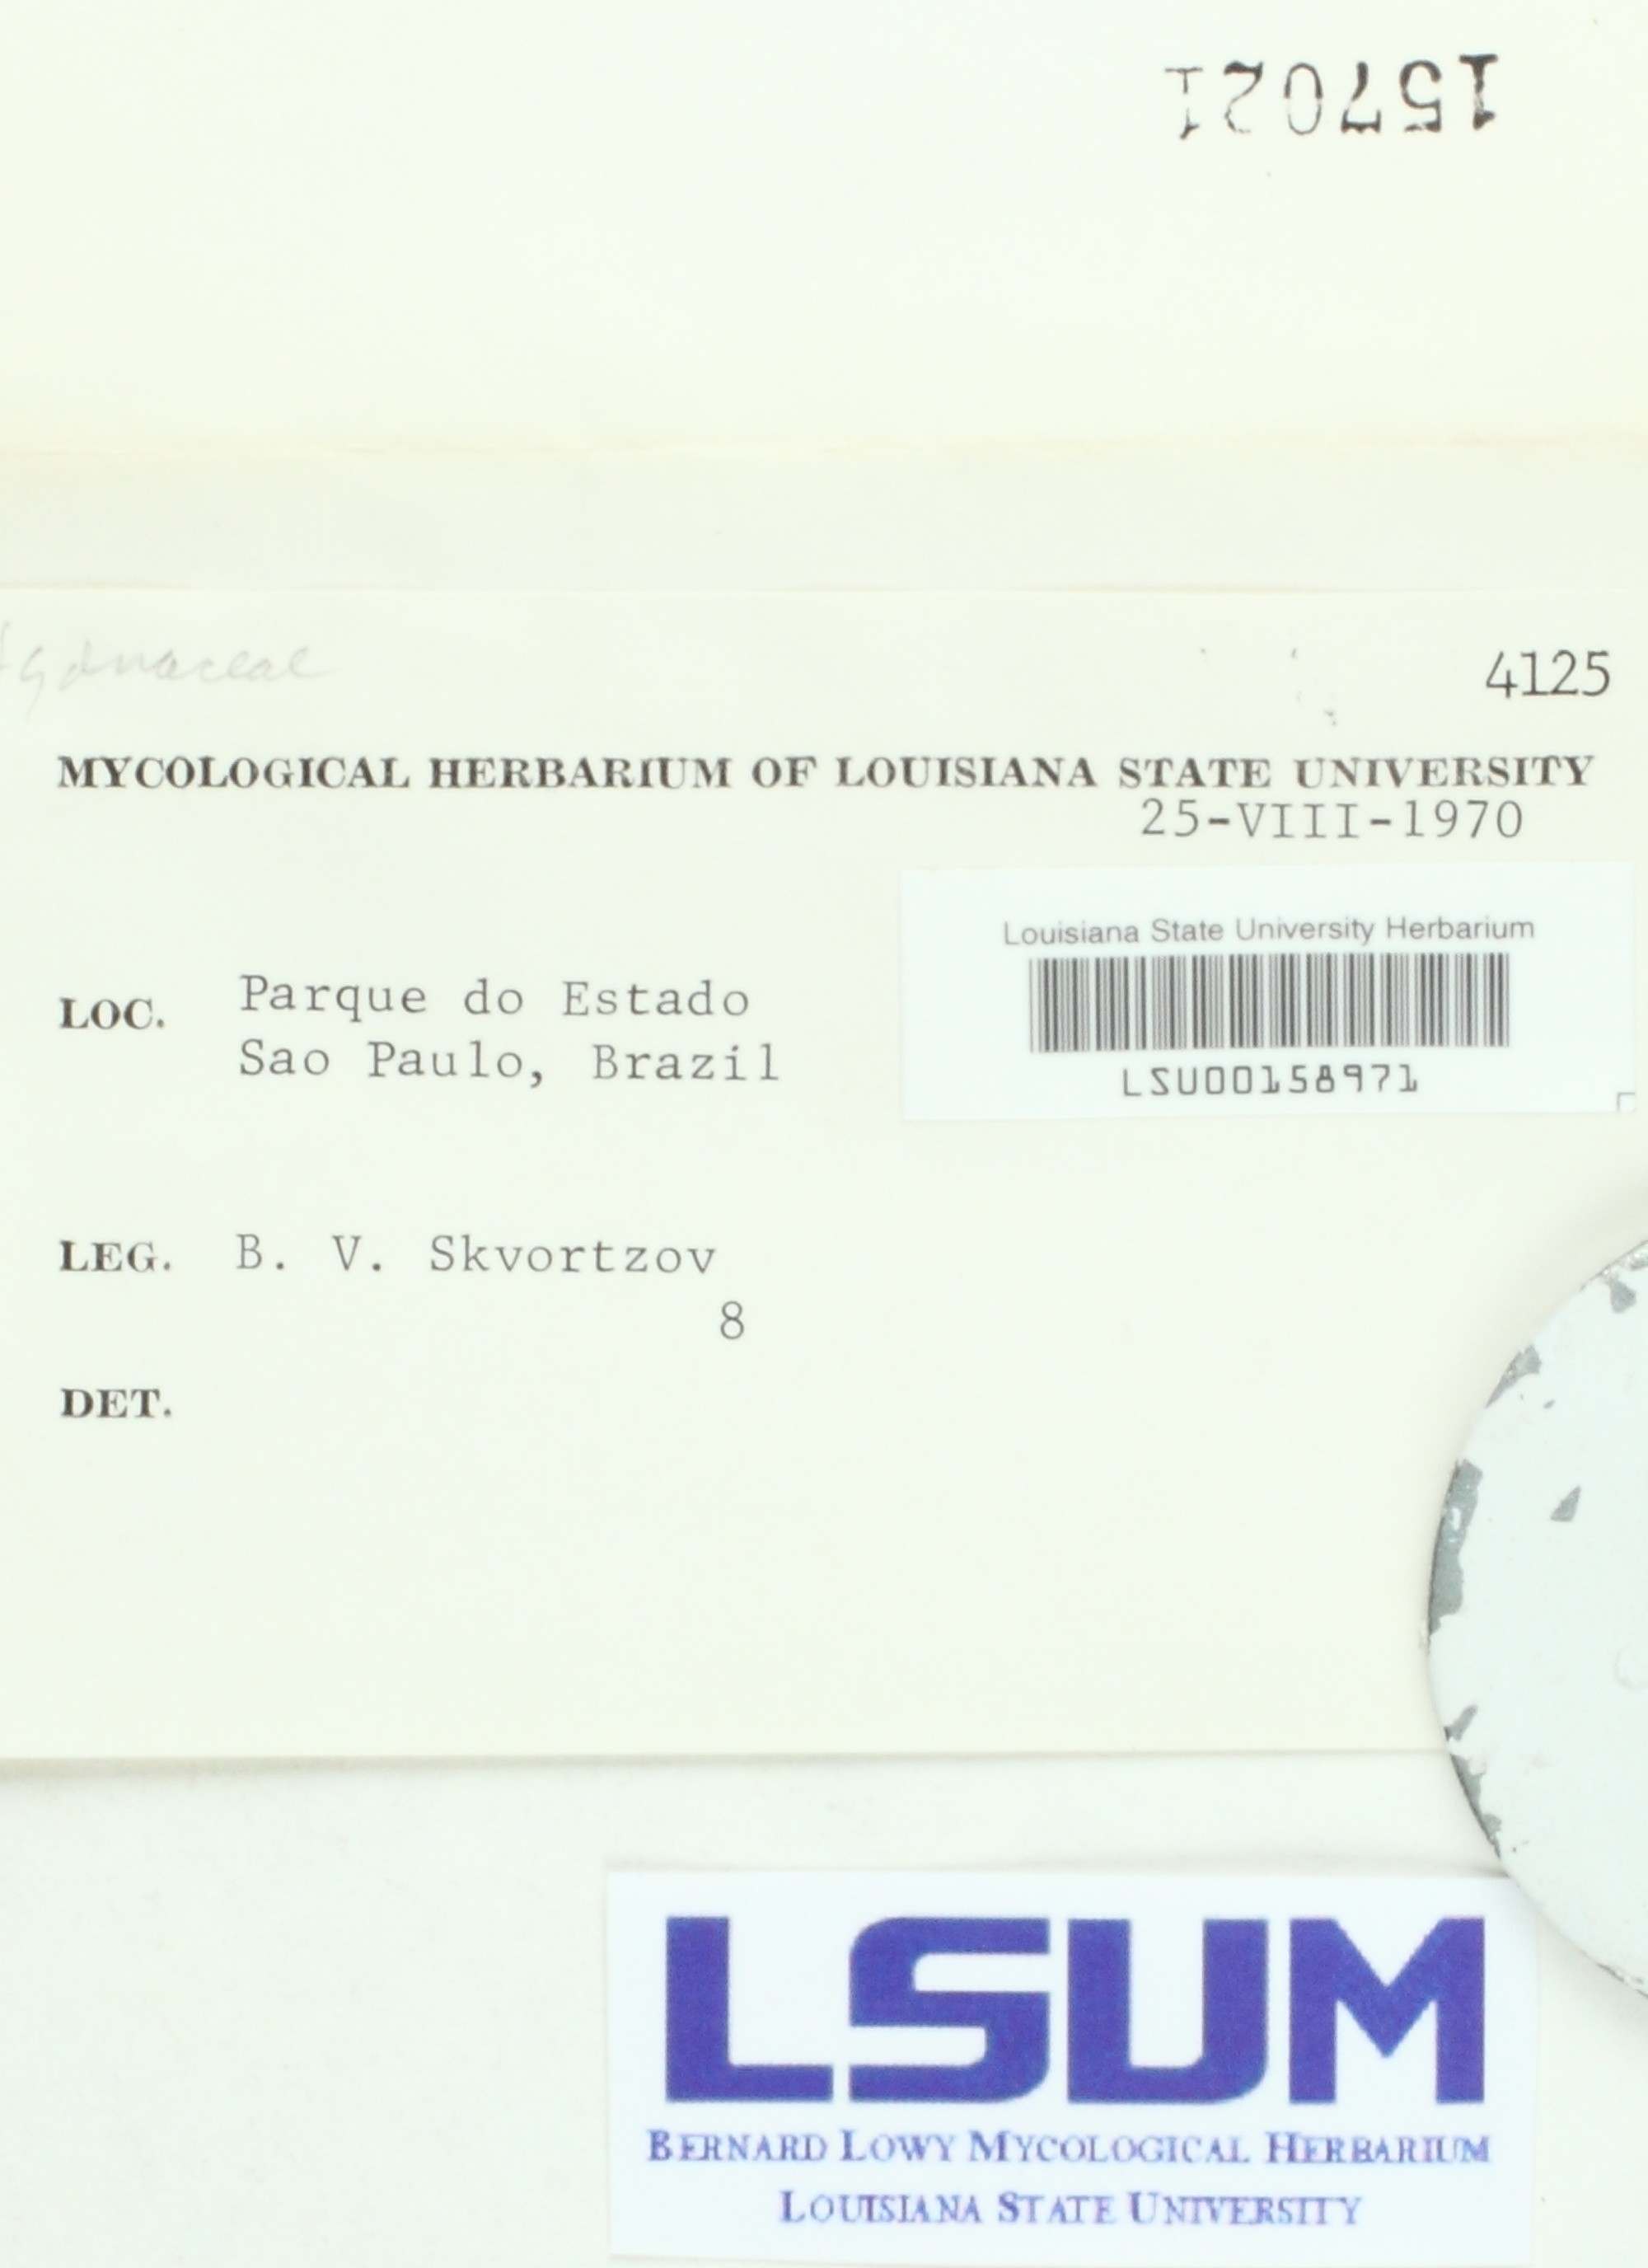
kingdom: Fungi
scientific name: Fungi
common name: Fungi
